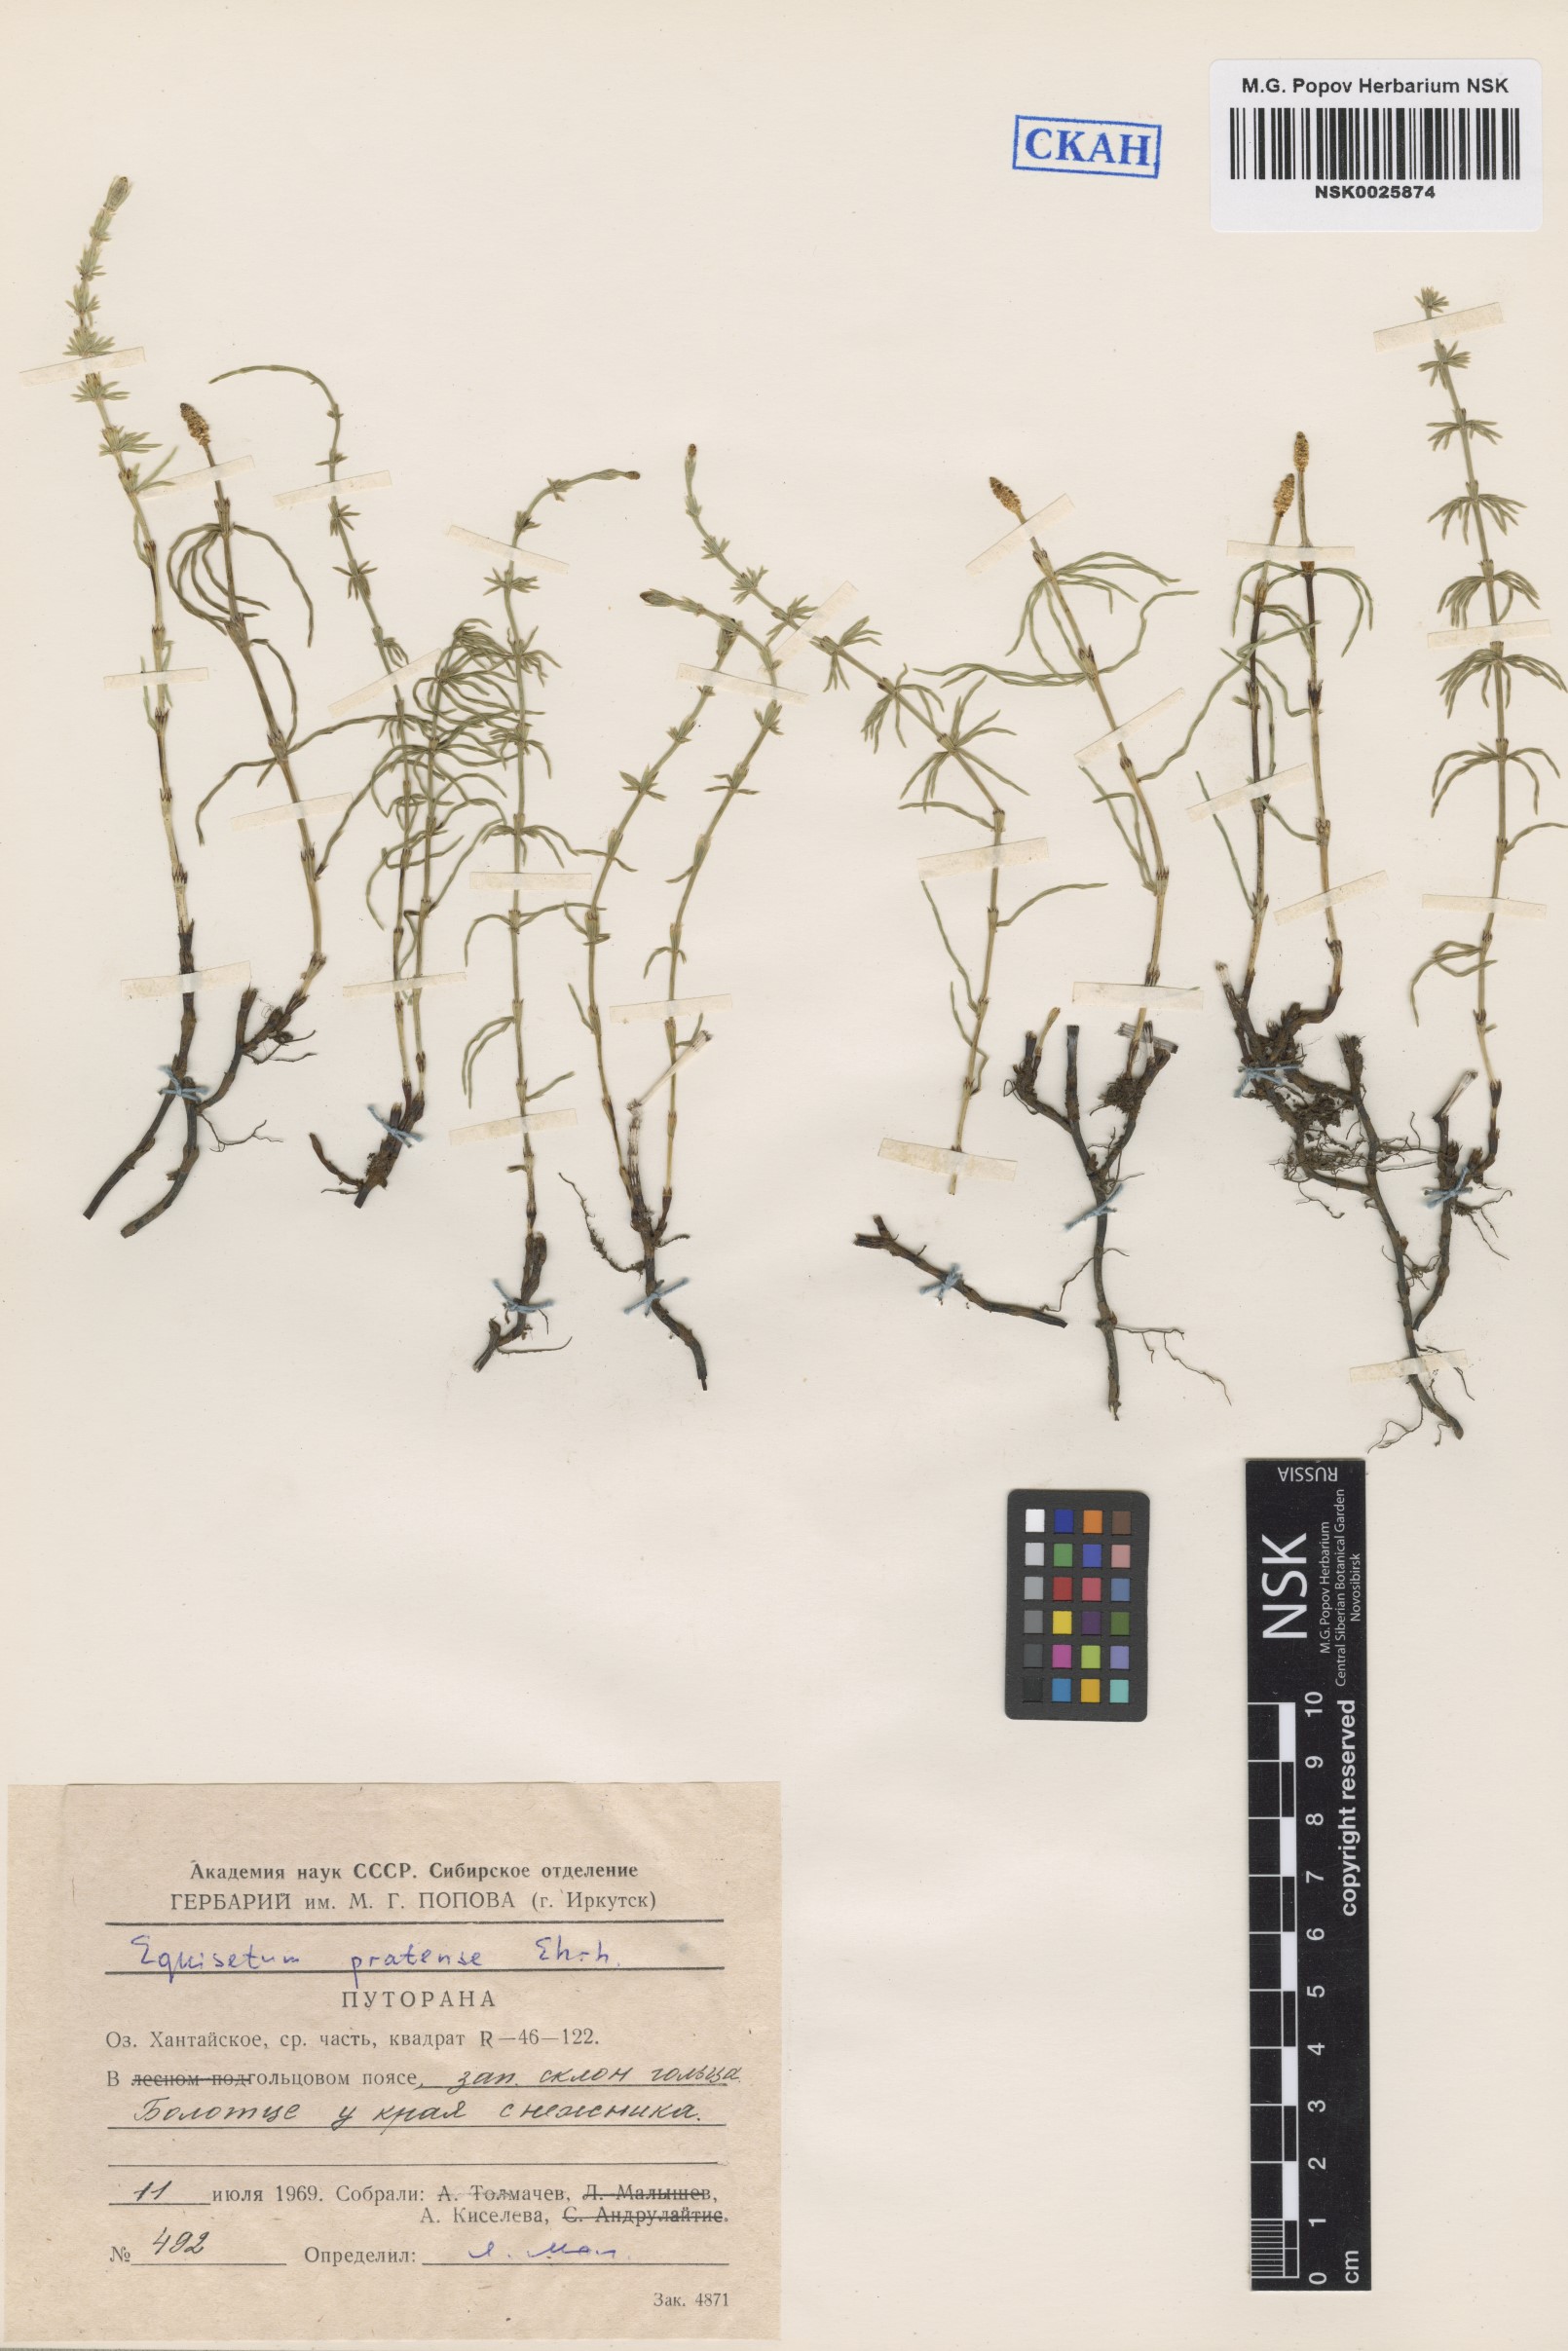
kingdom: Plantae
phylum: Tracheophyta
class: Polypodiopsida
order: Equisetales
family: Equisetaceae
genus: Equisetum
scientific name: Equisetum pratense
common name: Meadow horsetail
